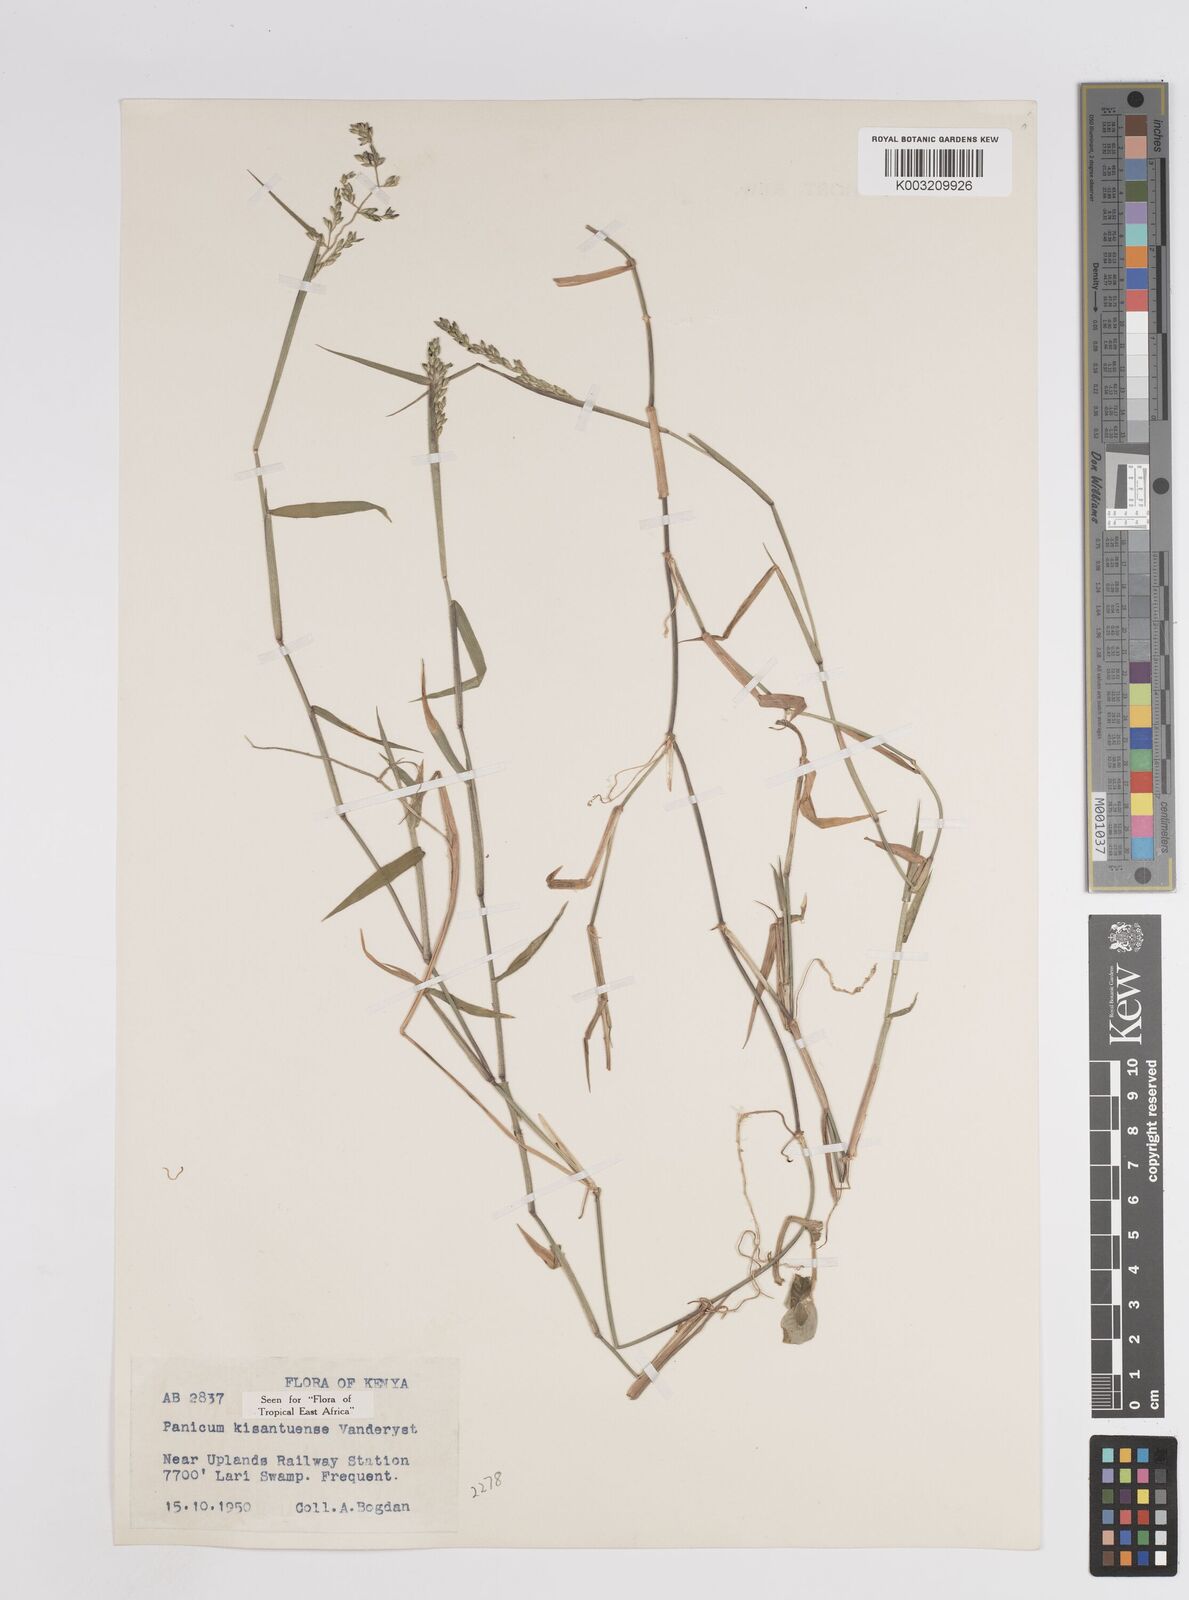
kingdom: Plantae
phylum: Tracheophyta
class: Liliopsida
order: Poales
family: Poaceae
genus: Adenochloa
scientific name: Adenochloa hymeniochila
